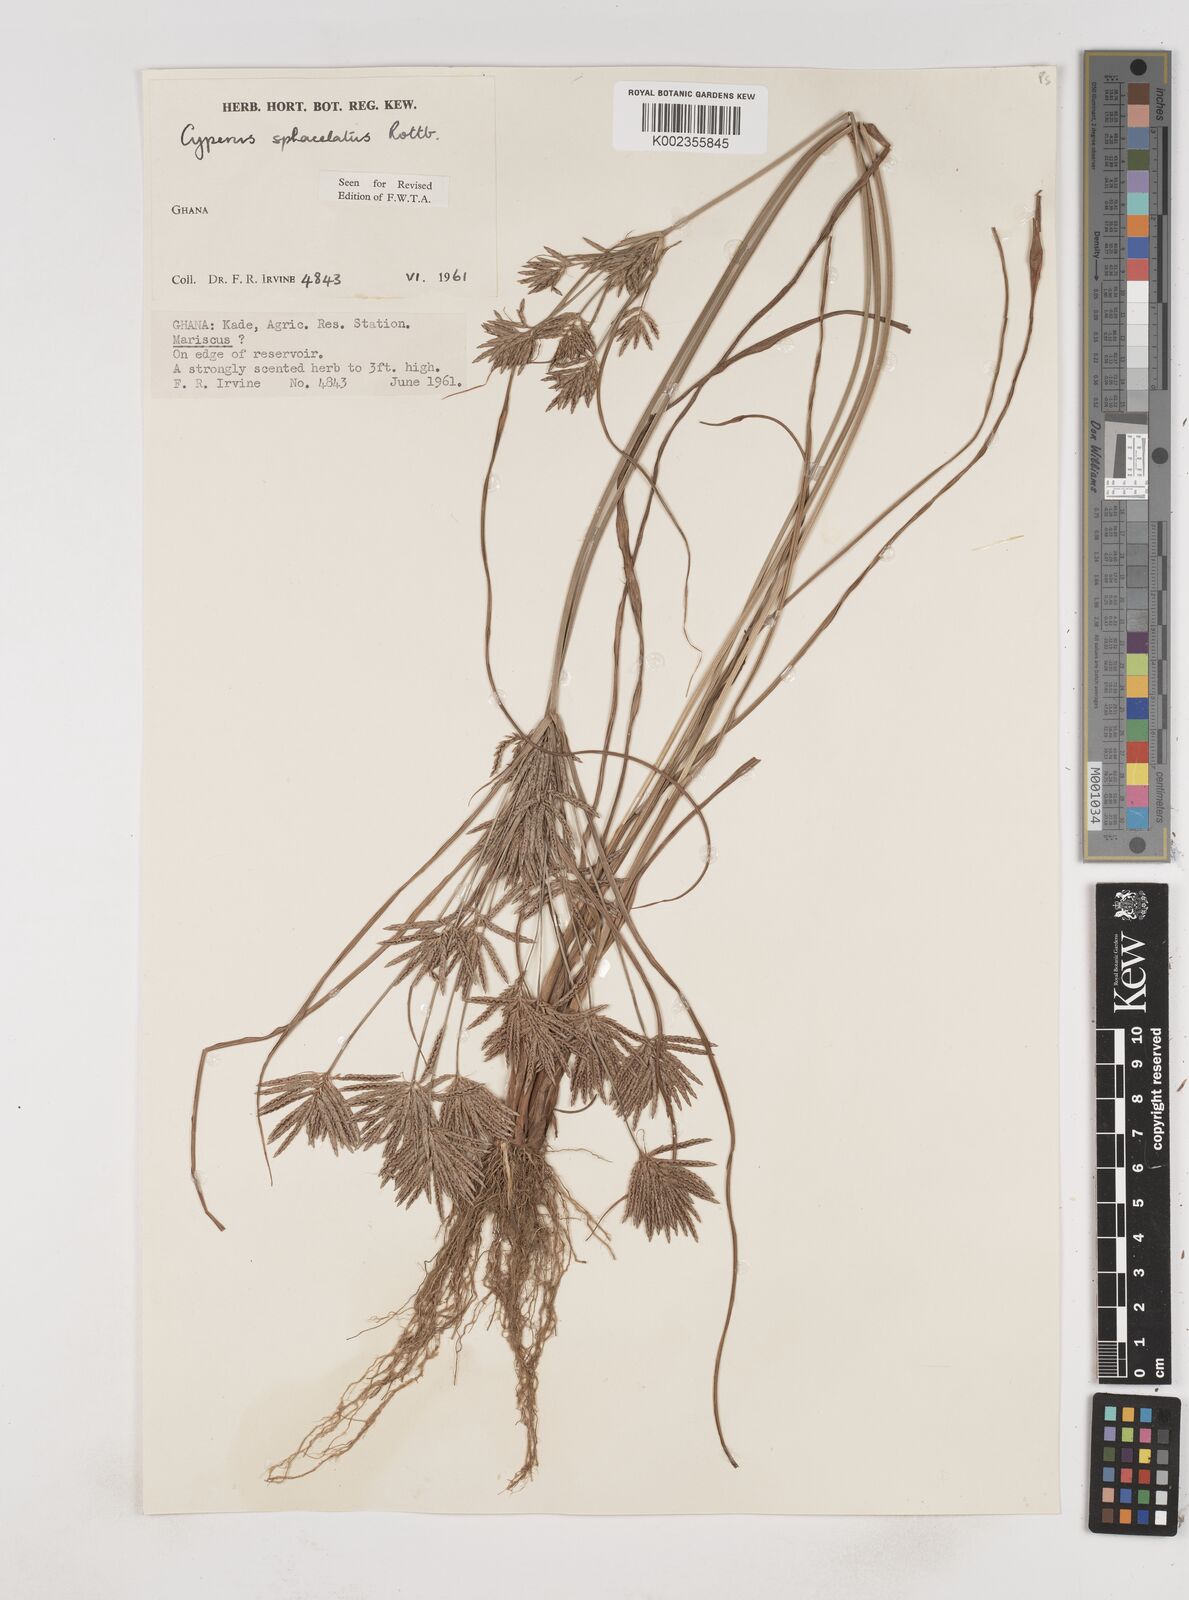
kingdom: Plantae
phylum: Tracheophyta
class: Liliopsida
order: Poales
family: Cyperaceae
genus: Cyperus
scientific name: Cyperus sphacelatus
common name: Roadside flatsedge
